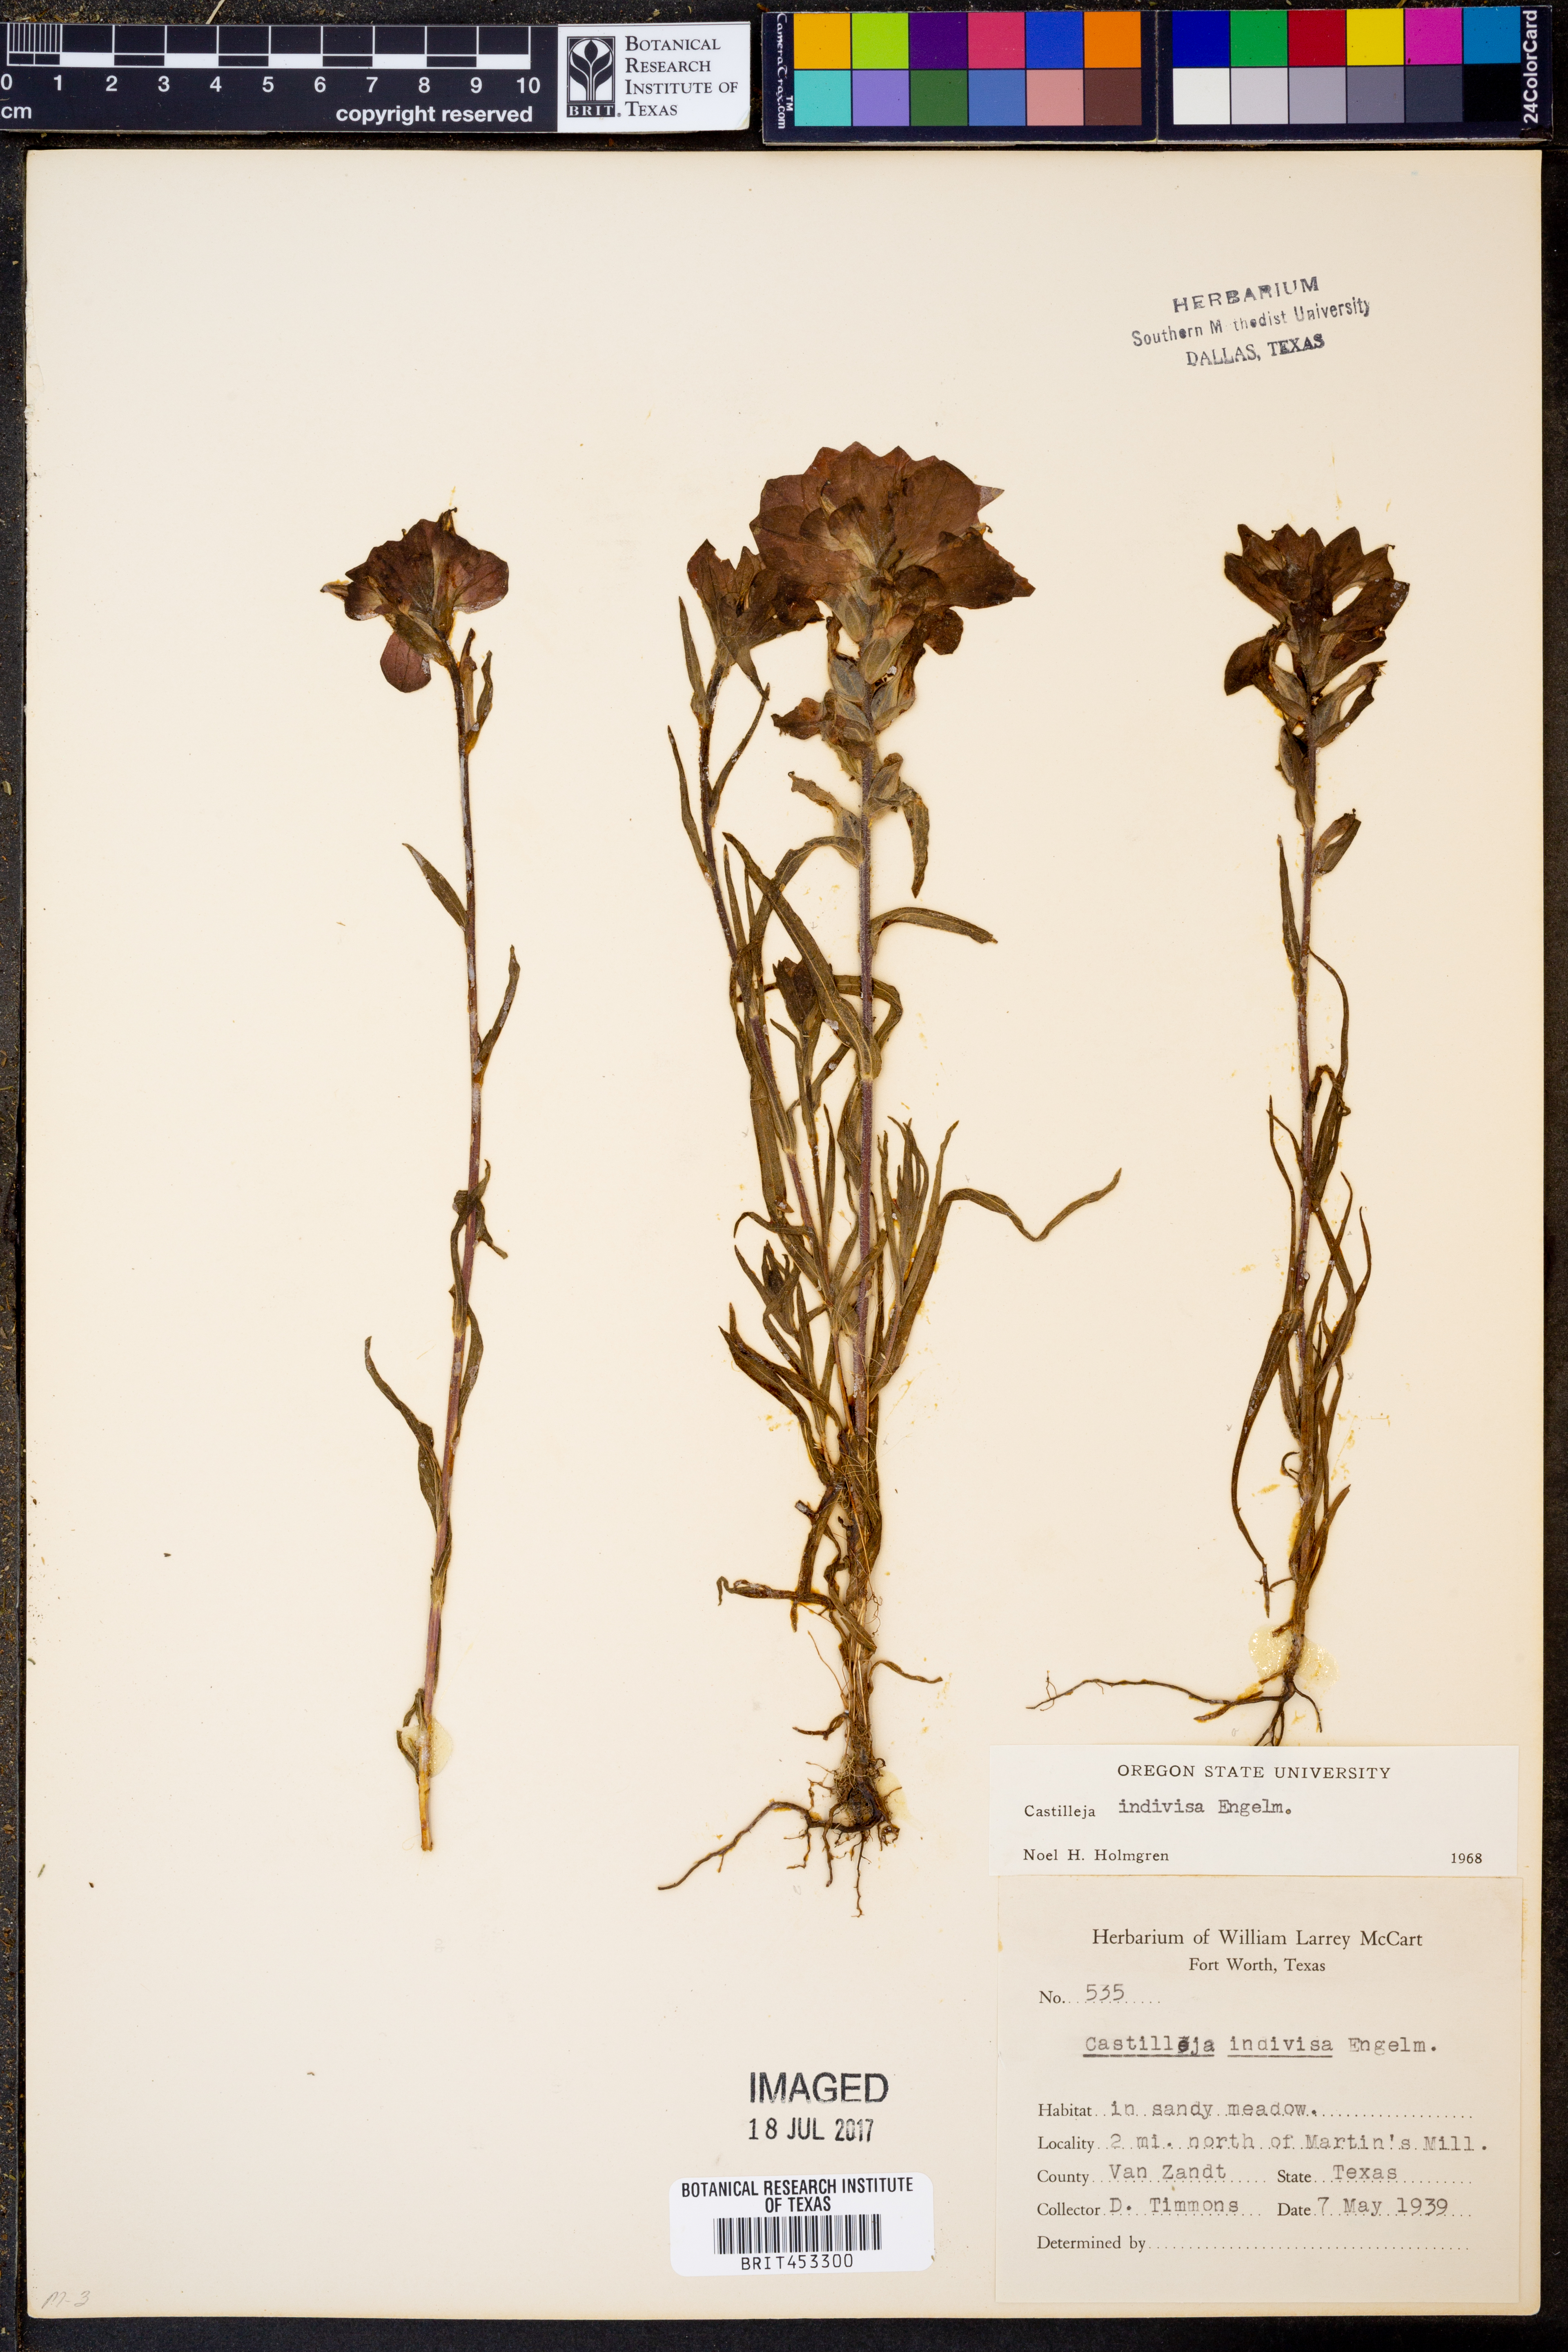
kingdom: Plantae
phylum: Tracheophyta
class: Magnoliopsida
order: Lamiales
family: Orobanchaceae
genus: Castilleja
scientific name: Castilleja indivisa
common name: Texas paintbrush
